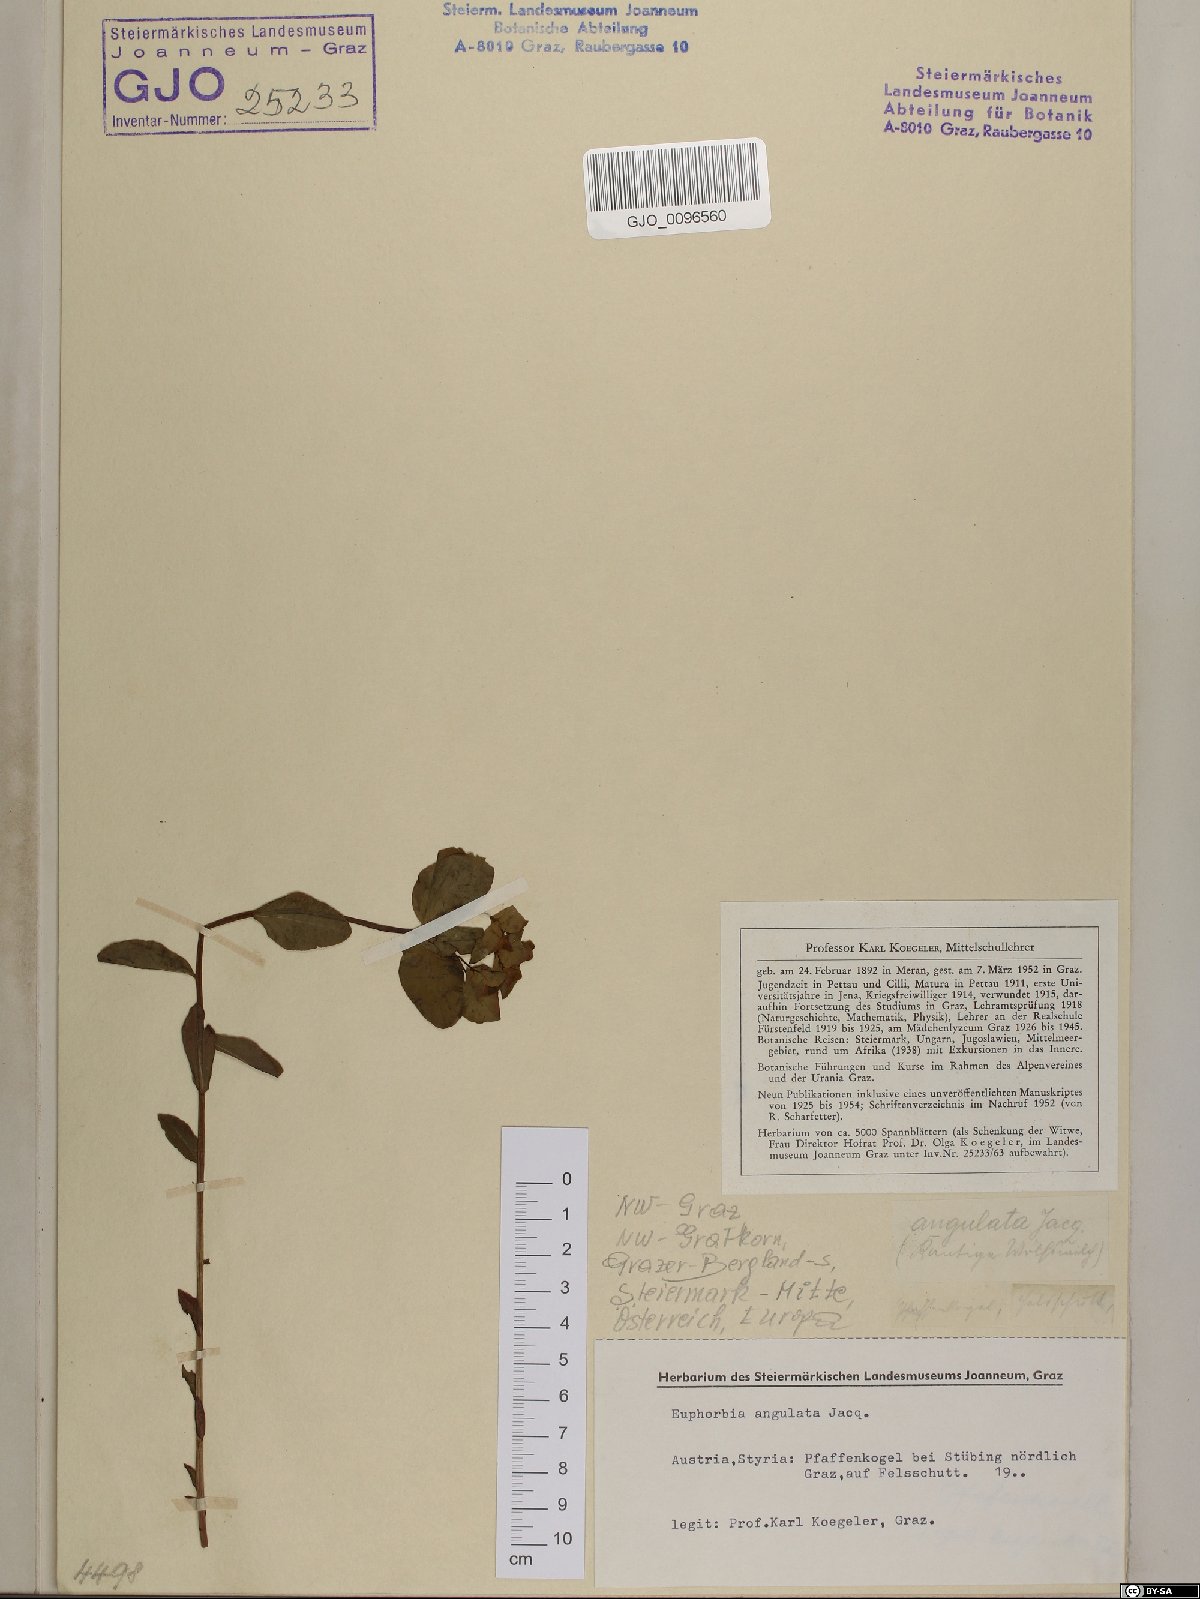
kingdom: Plantae
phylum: Tracheophyta
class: Magnoliopsida
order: Malpighiales
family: Euphorbiaceae
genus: Euphorbia
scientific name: Euphorbia angulata
